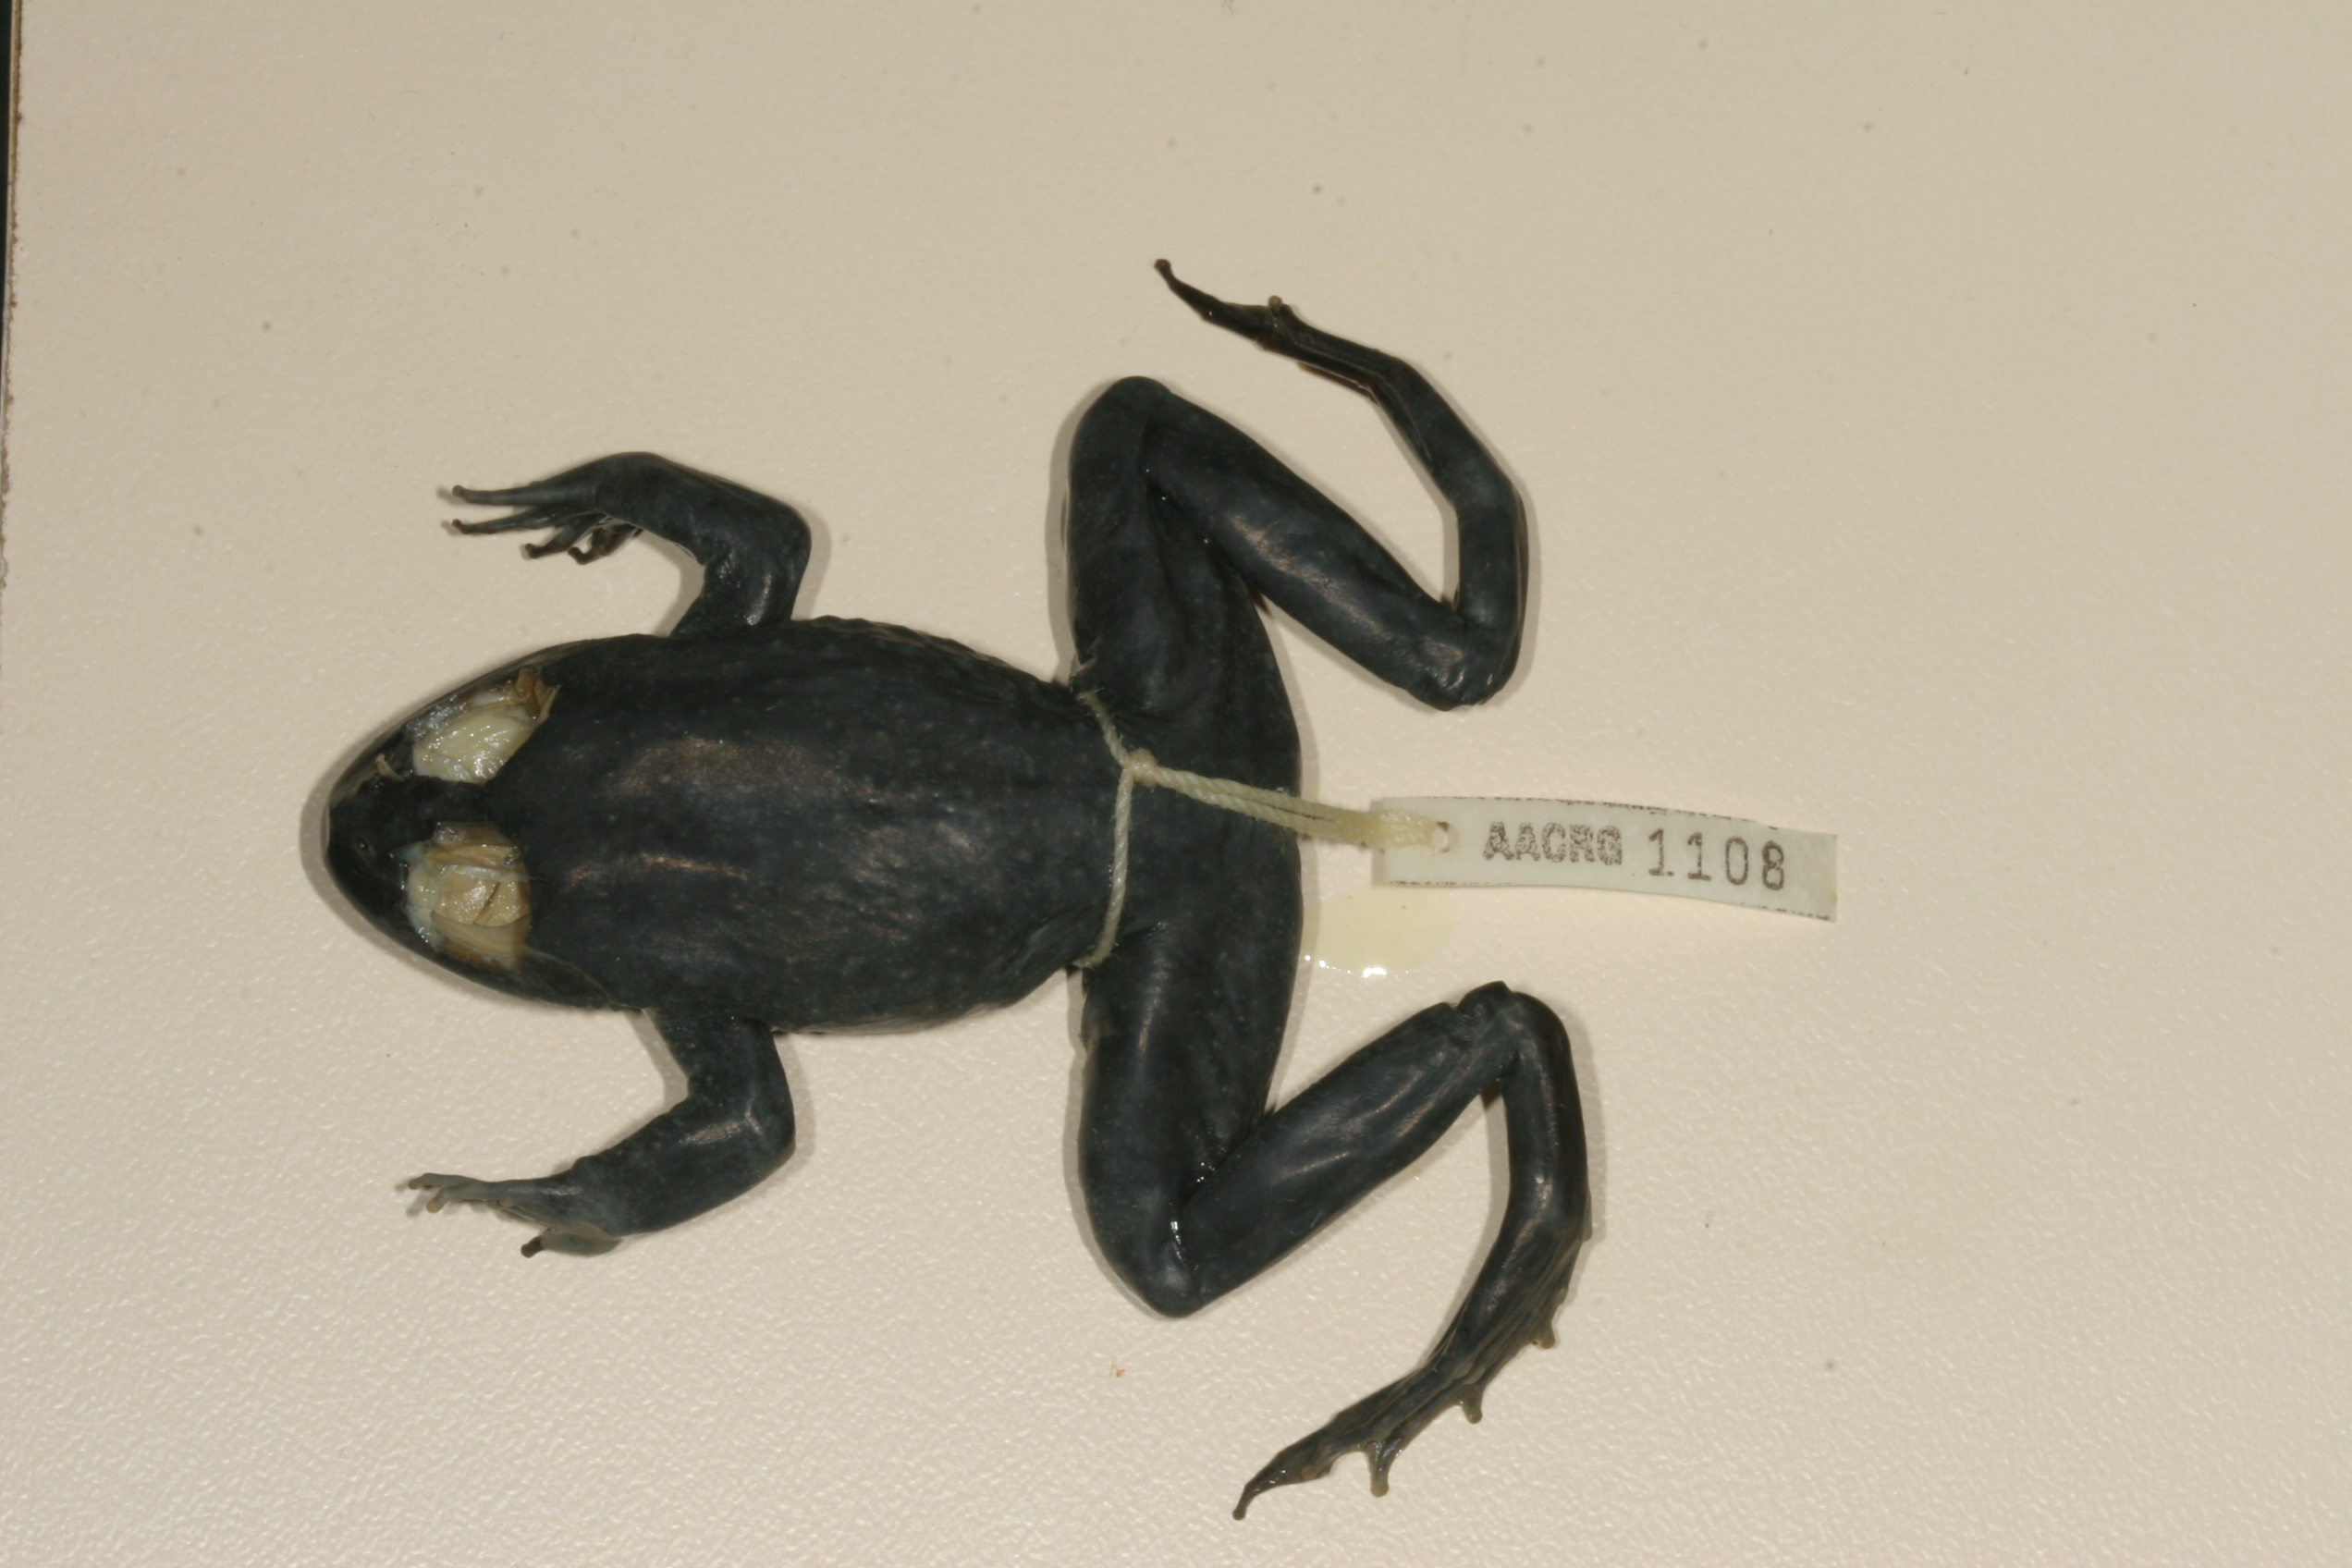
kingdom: Animalia
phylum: Chordata
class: Amphibia
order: Anura
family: Pyxicephalidae
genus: Amietia
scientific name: Amietia vertebralis
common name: Drakensberg stream frog
